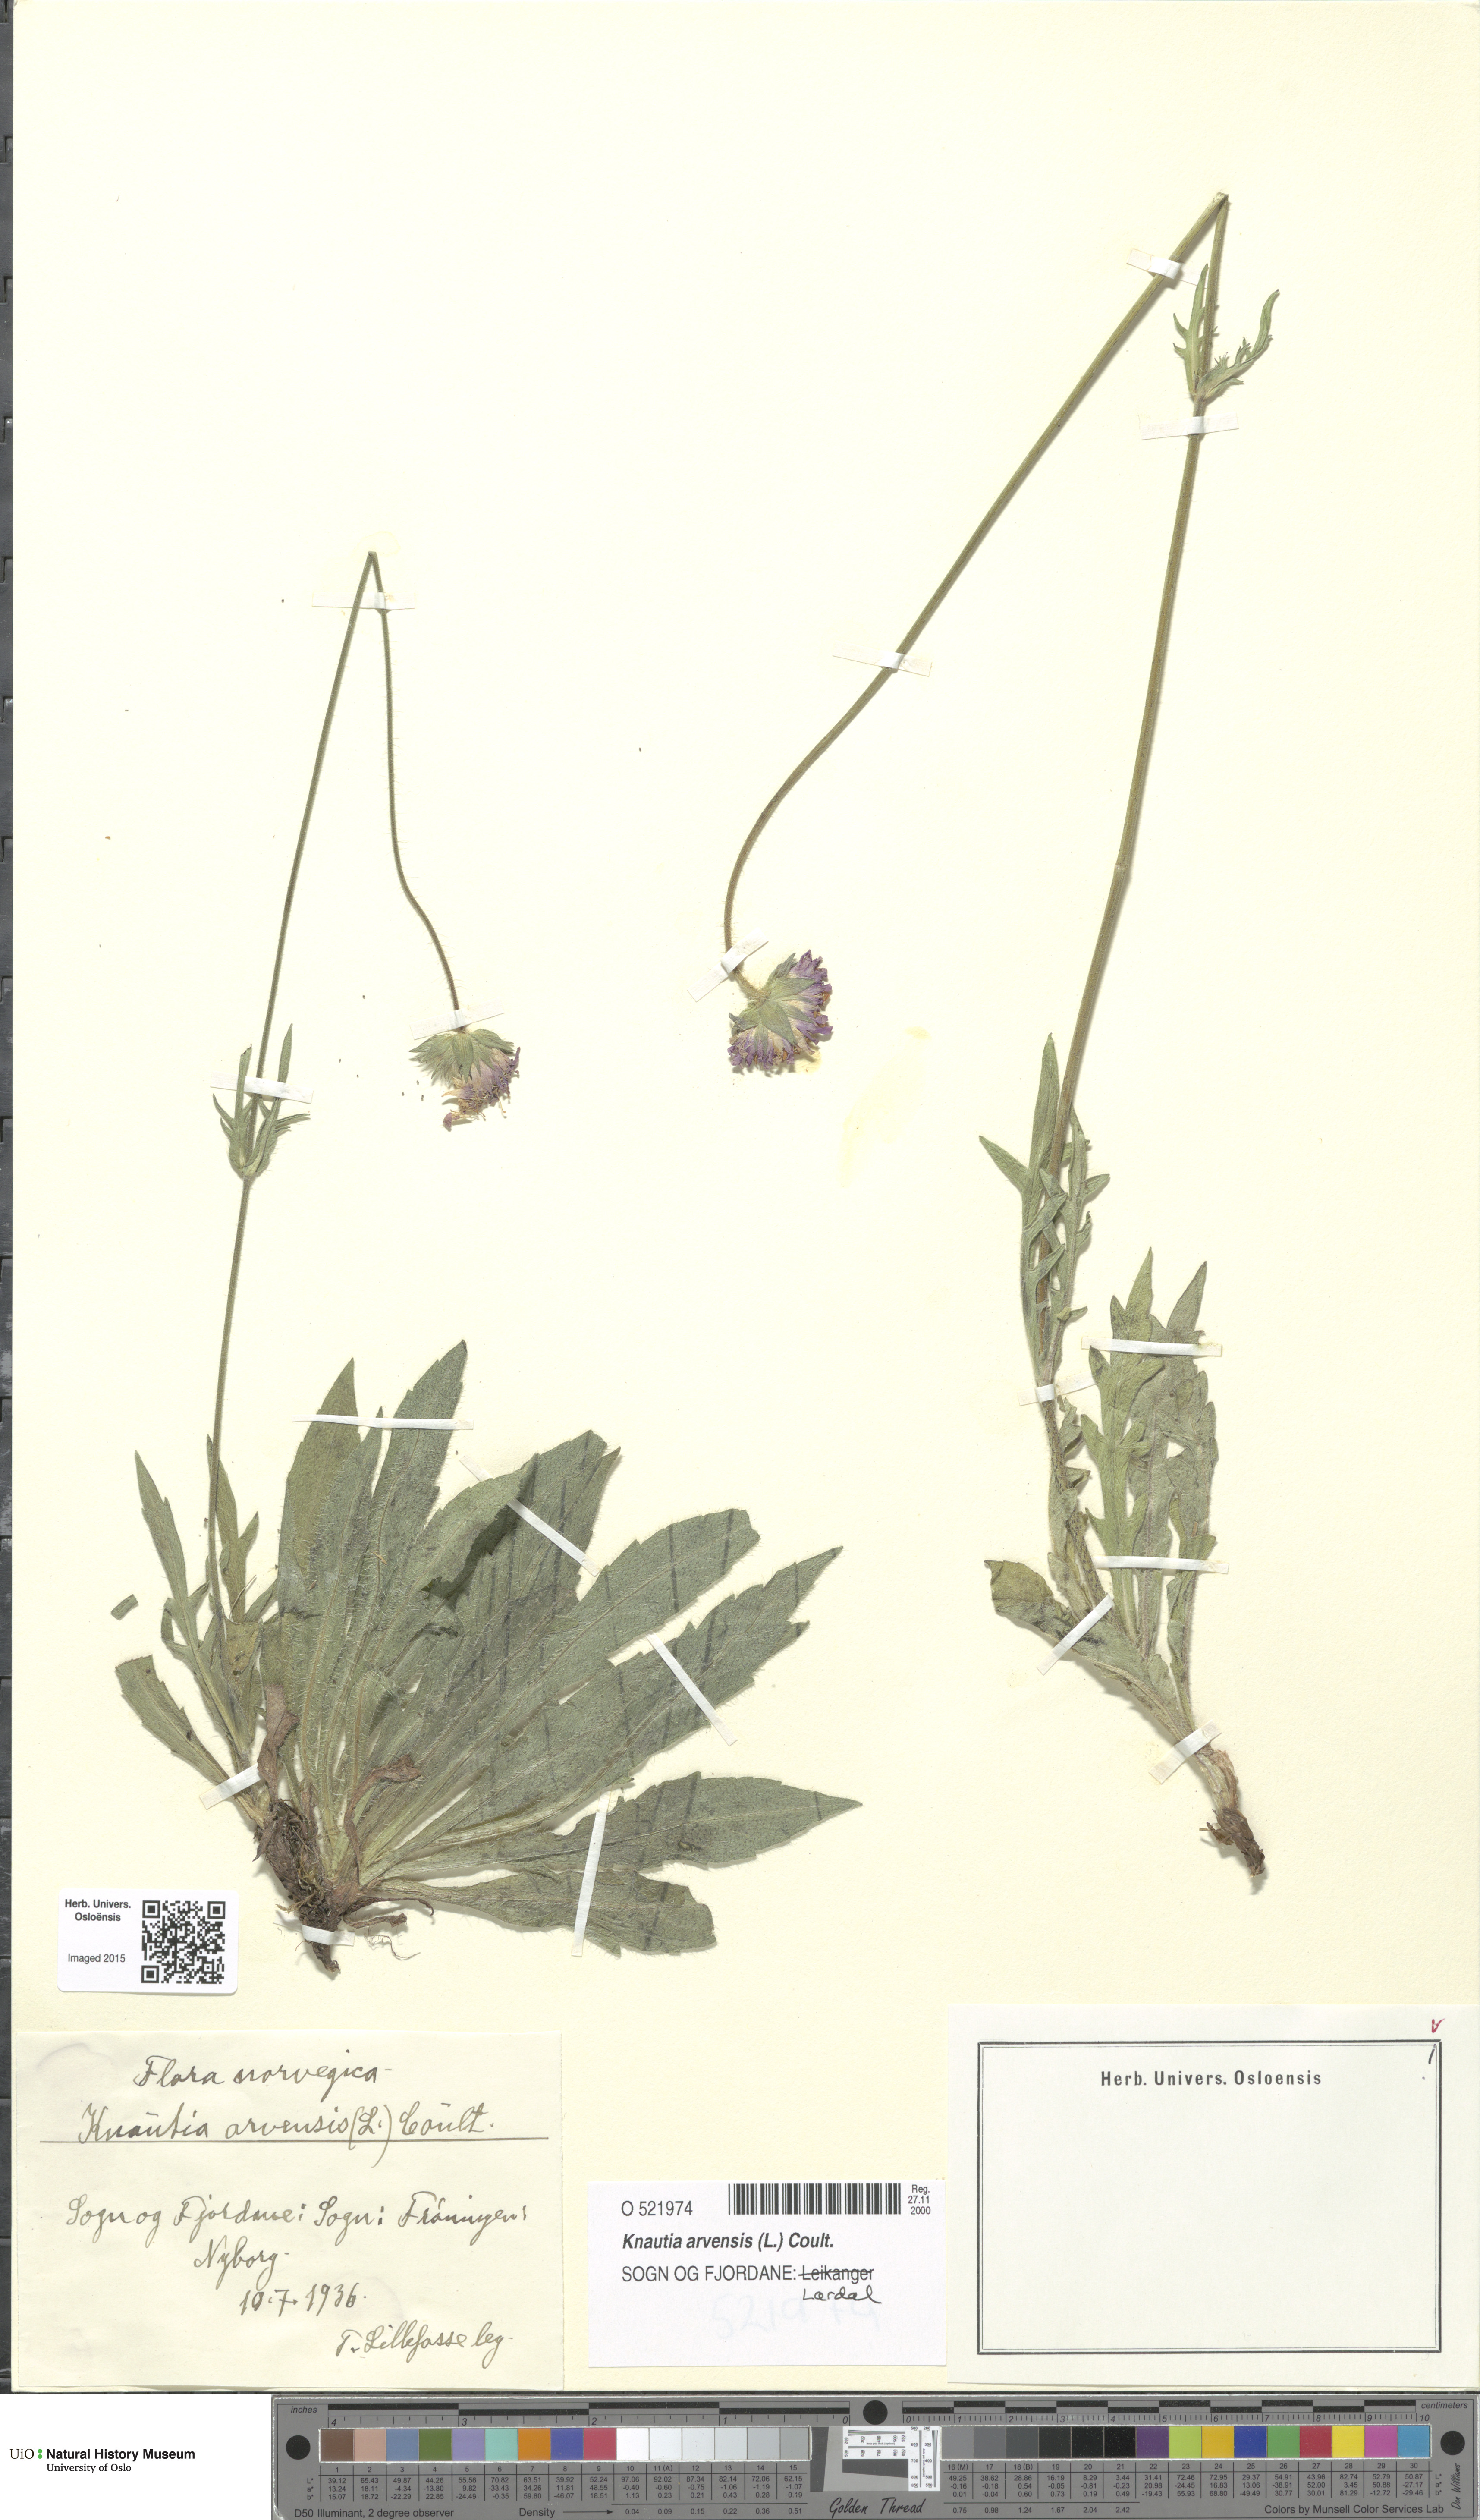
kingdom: Plantae
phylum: Tracheophyta
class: Magnoliopsida
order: Dipsacales
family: Caprifoliaceae
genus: Knautia
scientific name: Knautia arvensis
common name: Field scabiosa
